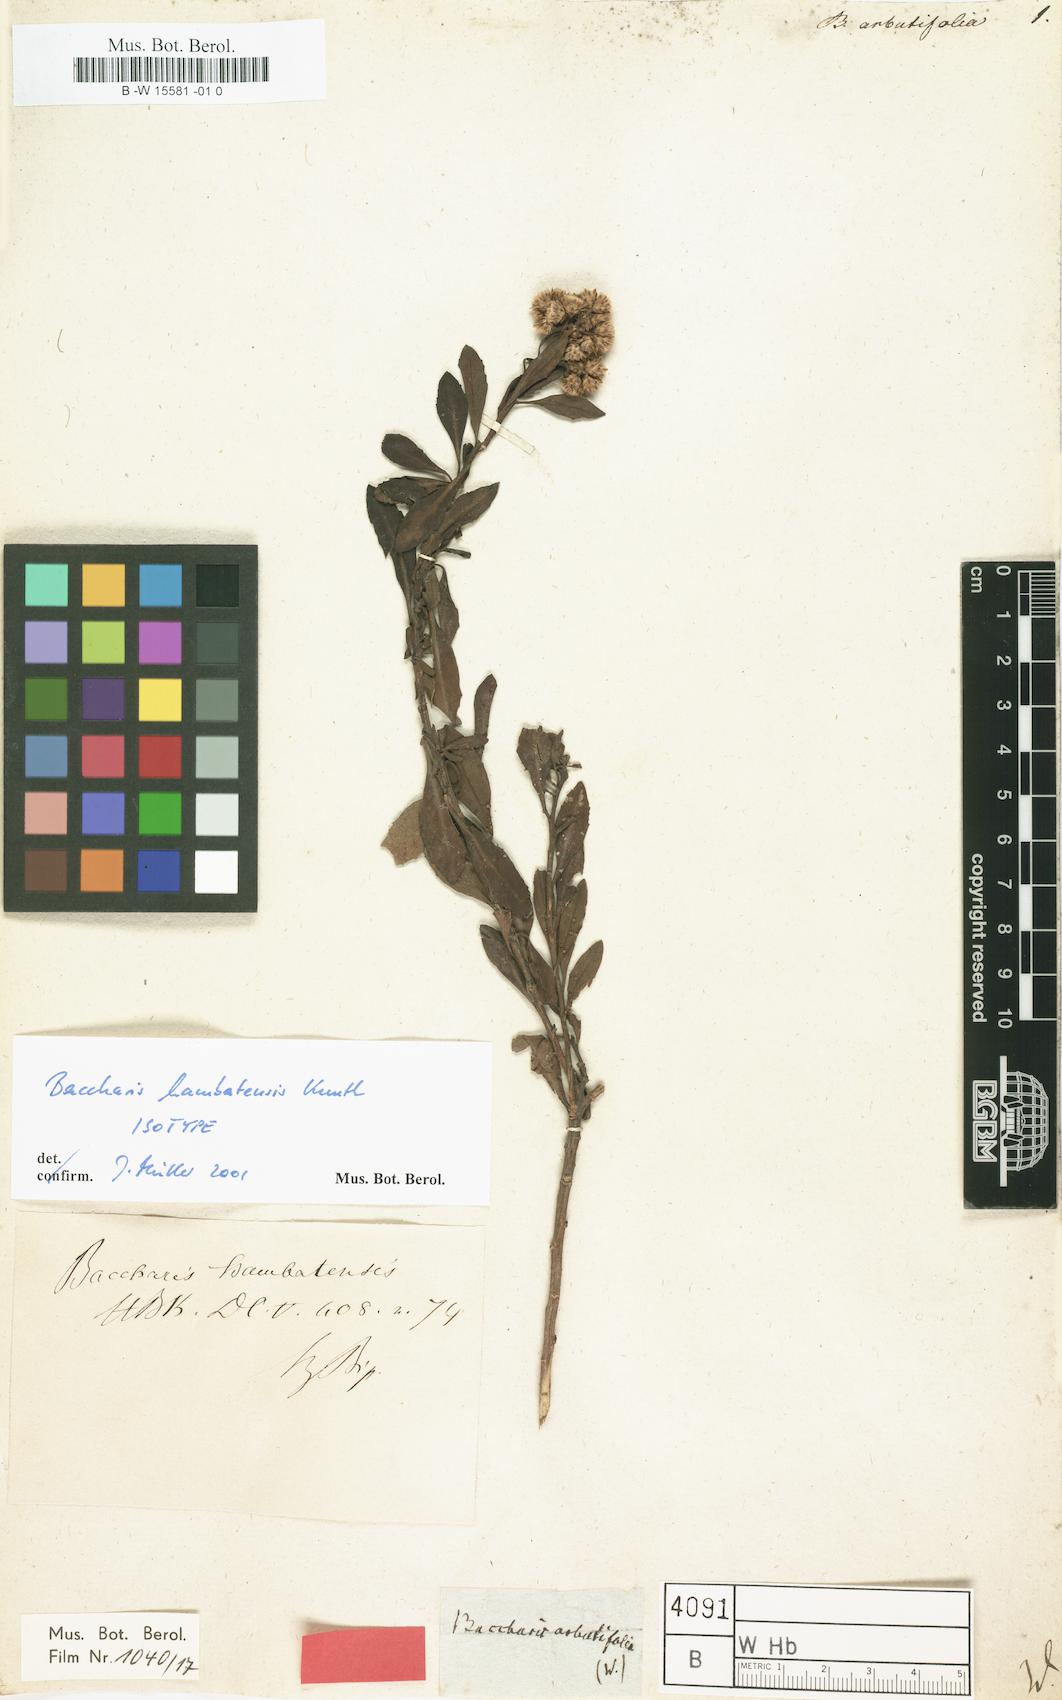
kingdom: Plantae
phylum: Tracheophyta
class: Magnoliopsida
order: Asterales
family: Asteraceae
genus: Baccharis
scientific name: Baccharis arbutifolia
